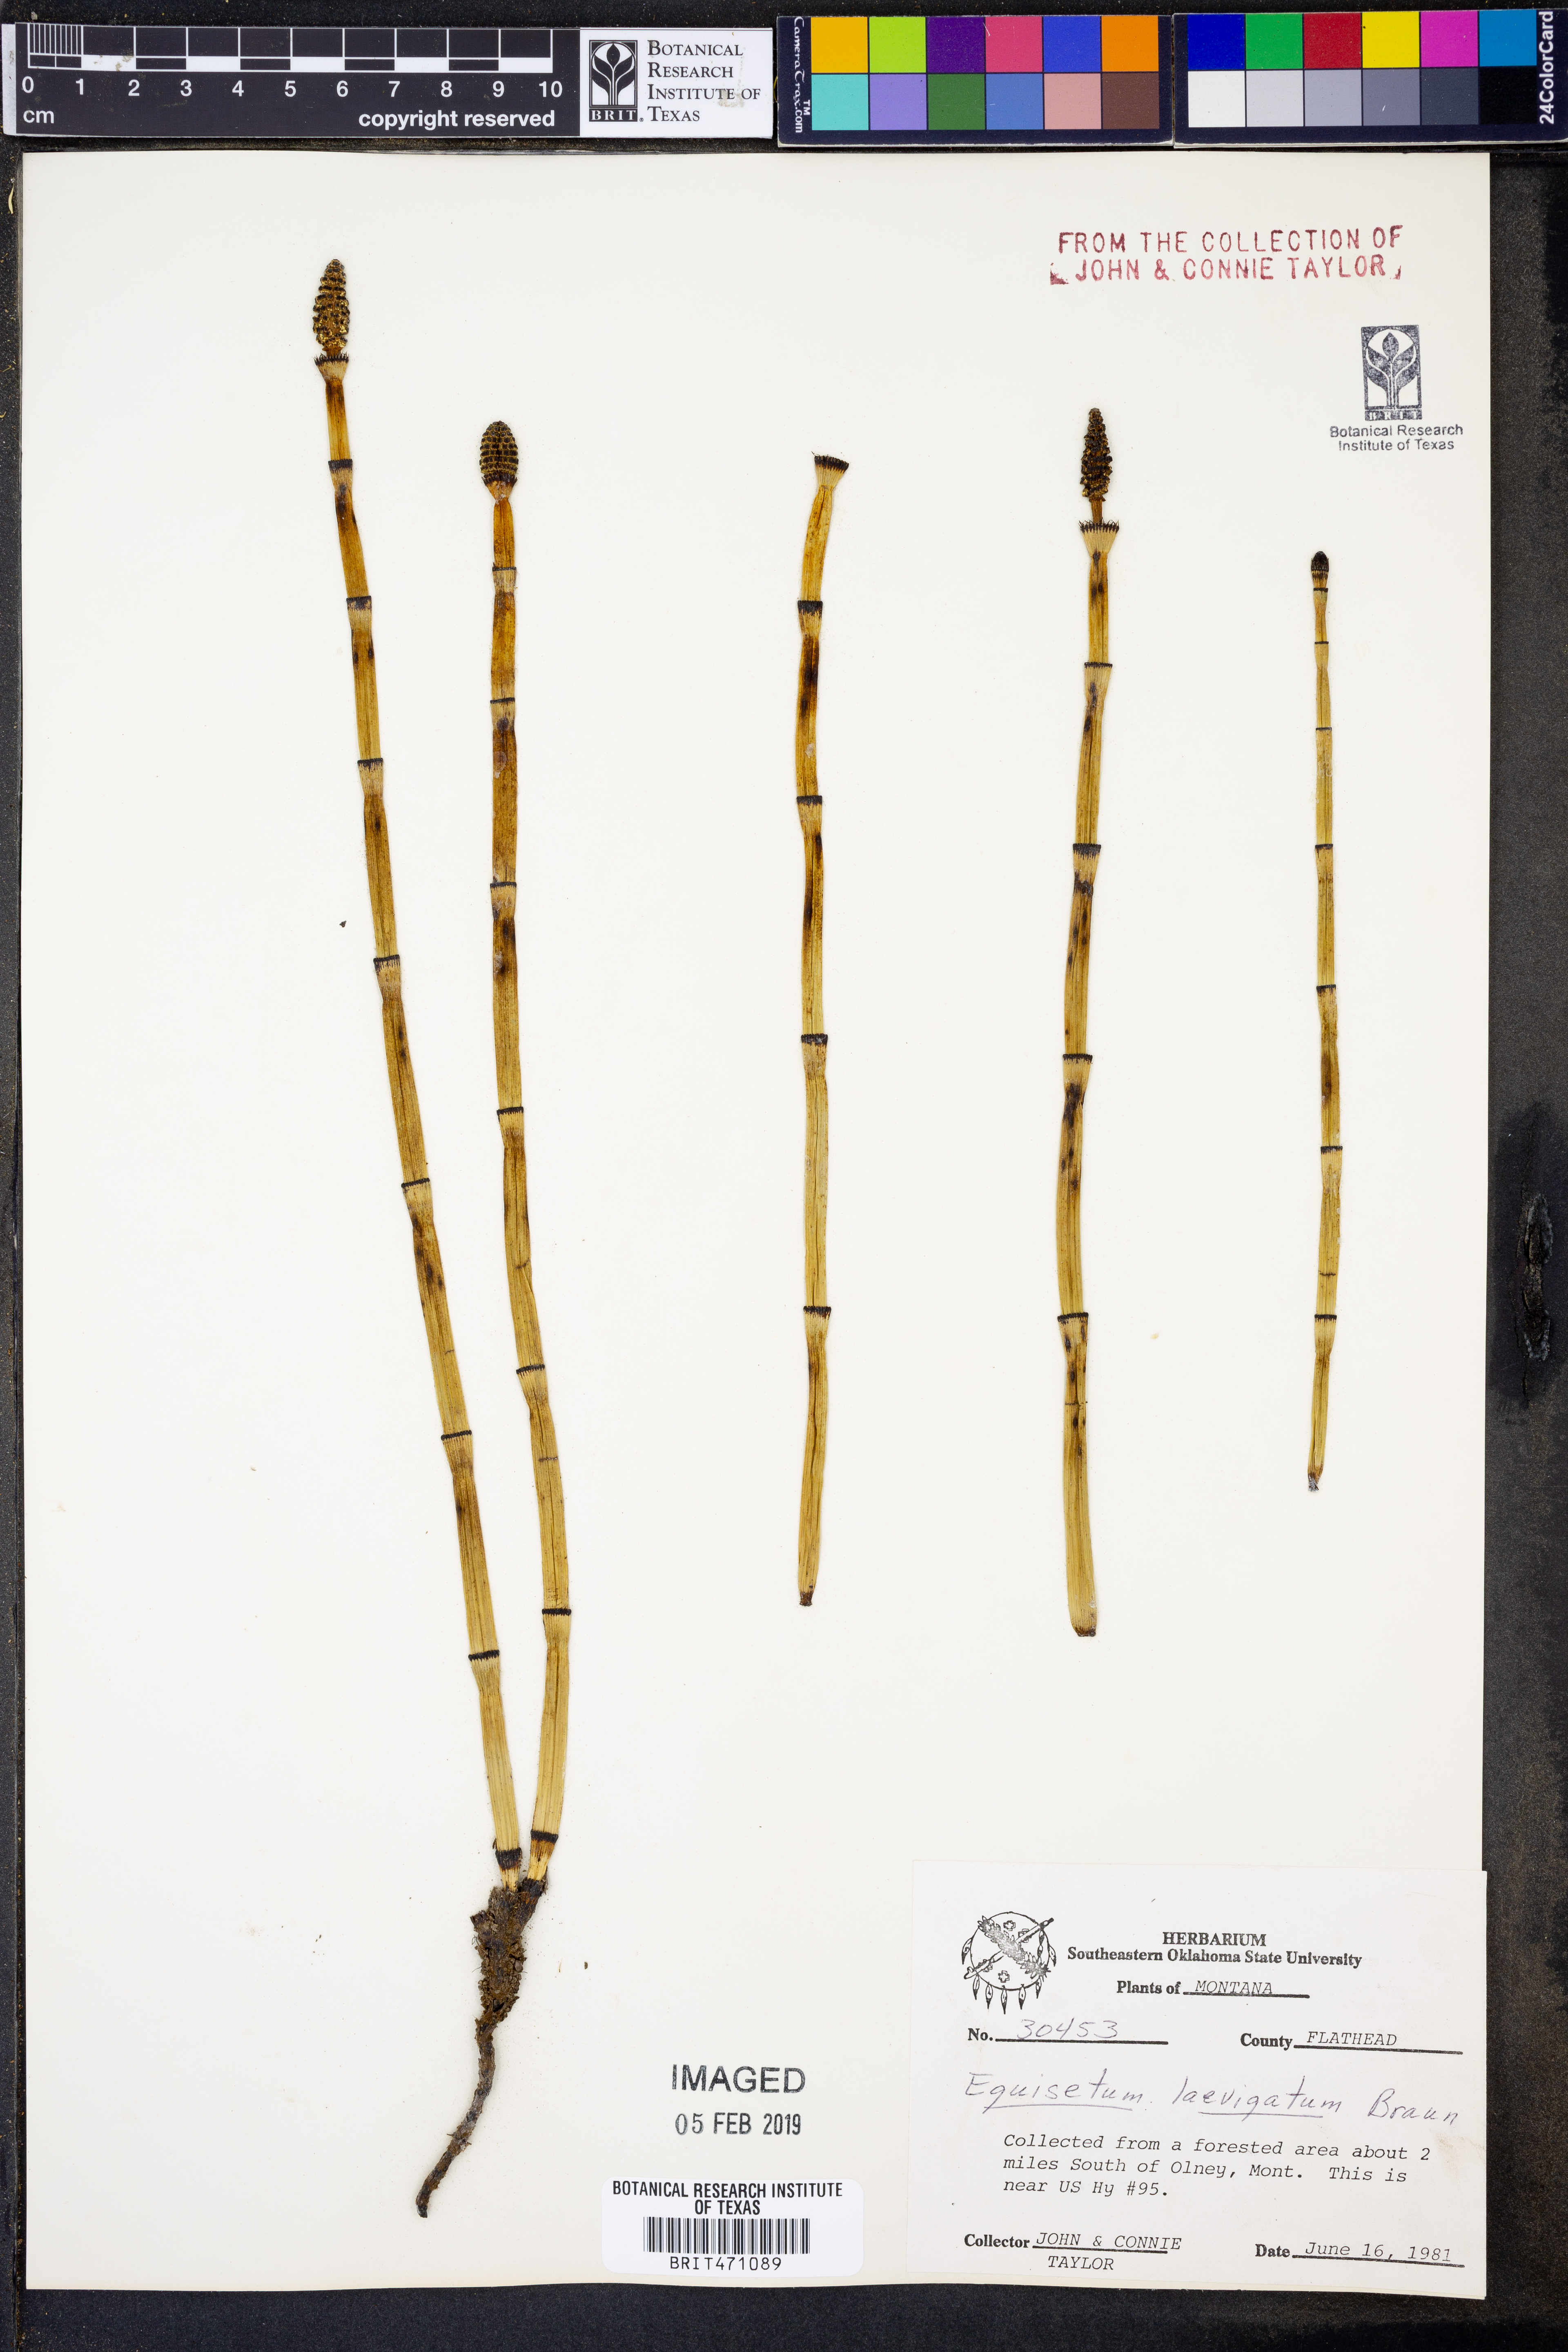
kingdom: Plantae
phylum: Tracheophyta
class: Polypodiopsida
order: Equisetales
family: Equisetaceae
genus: Equisetum
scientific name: Equisetum laevigatum
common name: Smooth scouring-rush
